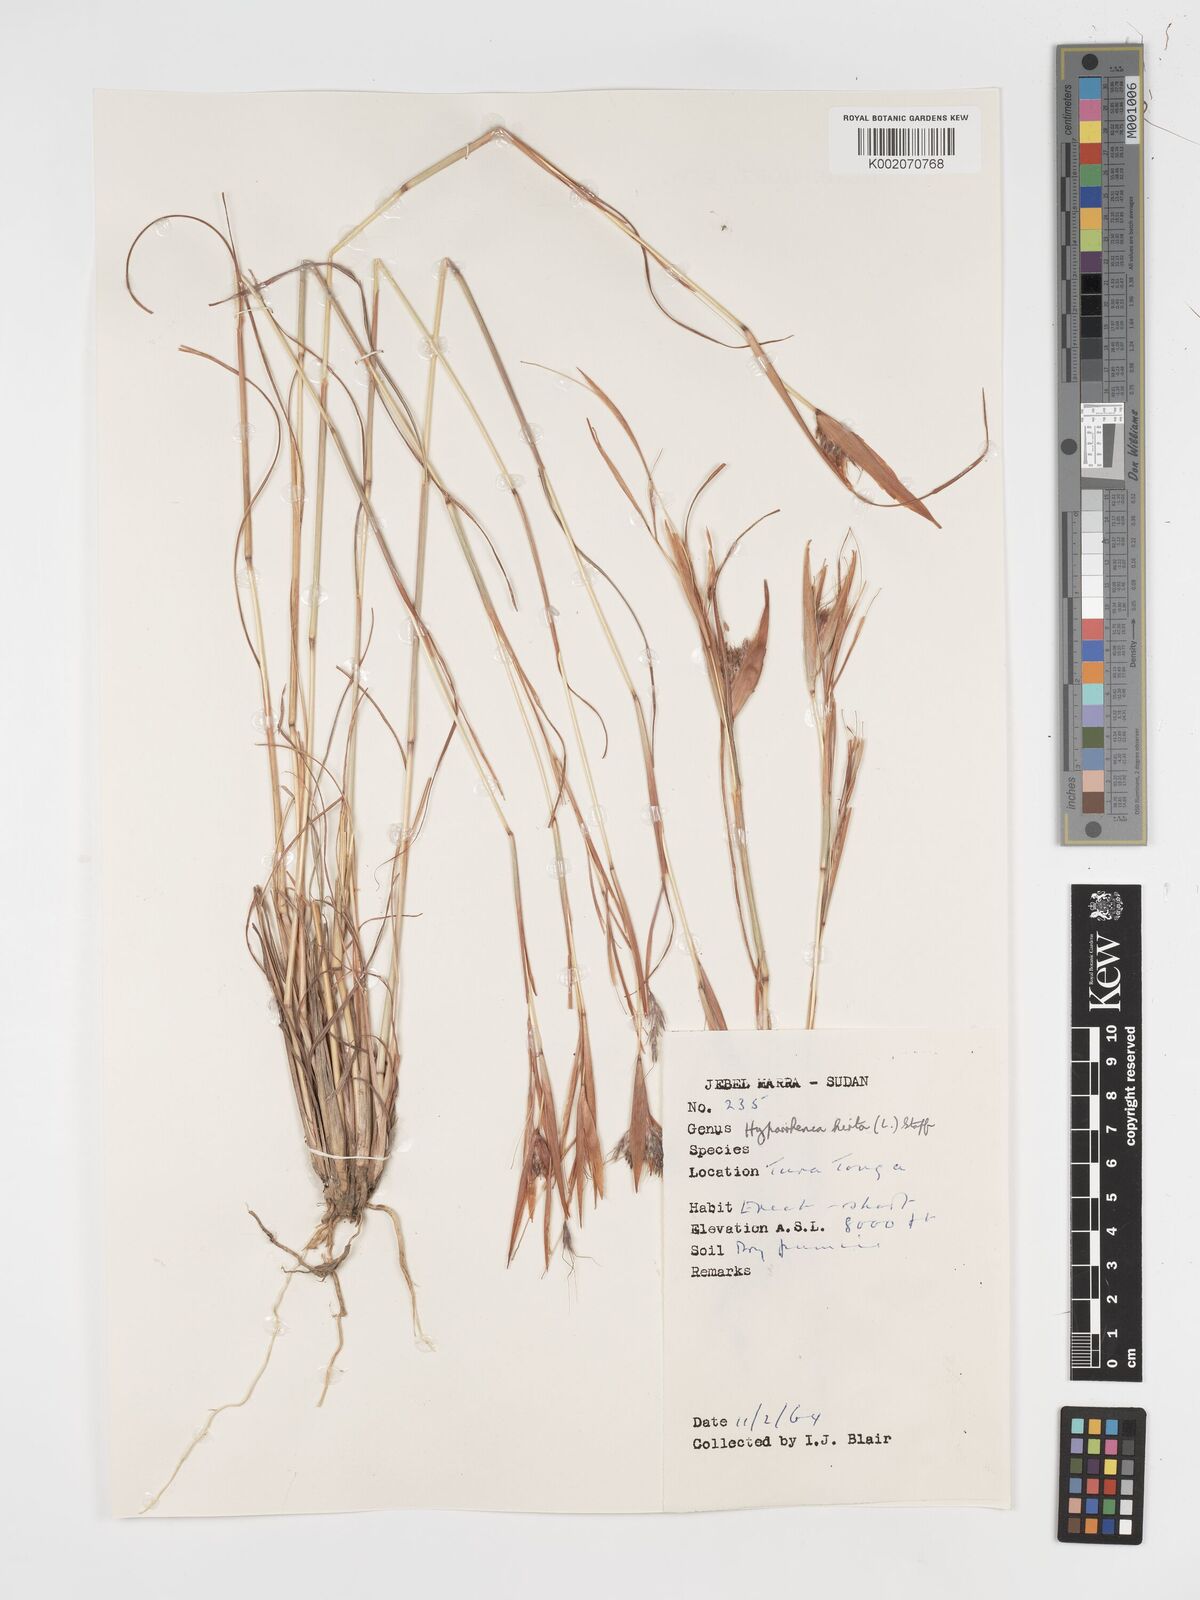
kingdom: Plantae
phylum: Tracheophyta
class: Liliopsida
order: Poales
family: Poaceae
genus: Hyparrhenia
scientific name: Hyparrhenia hirta
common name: Thatching grass
